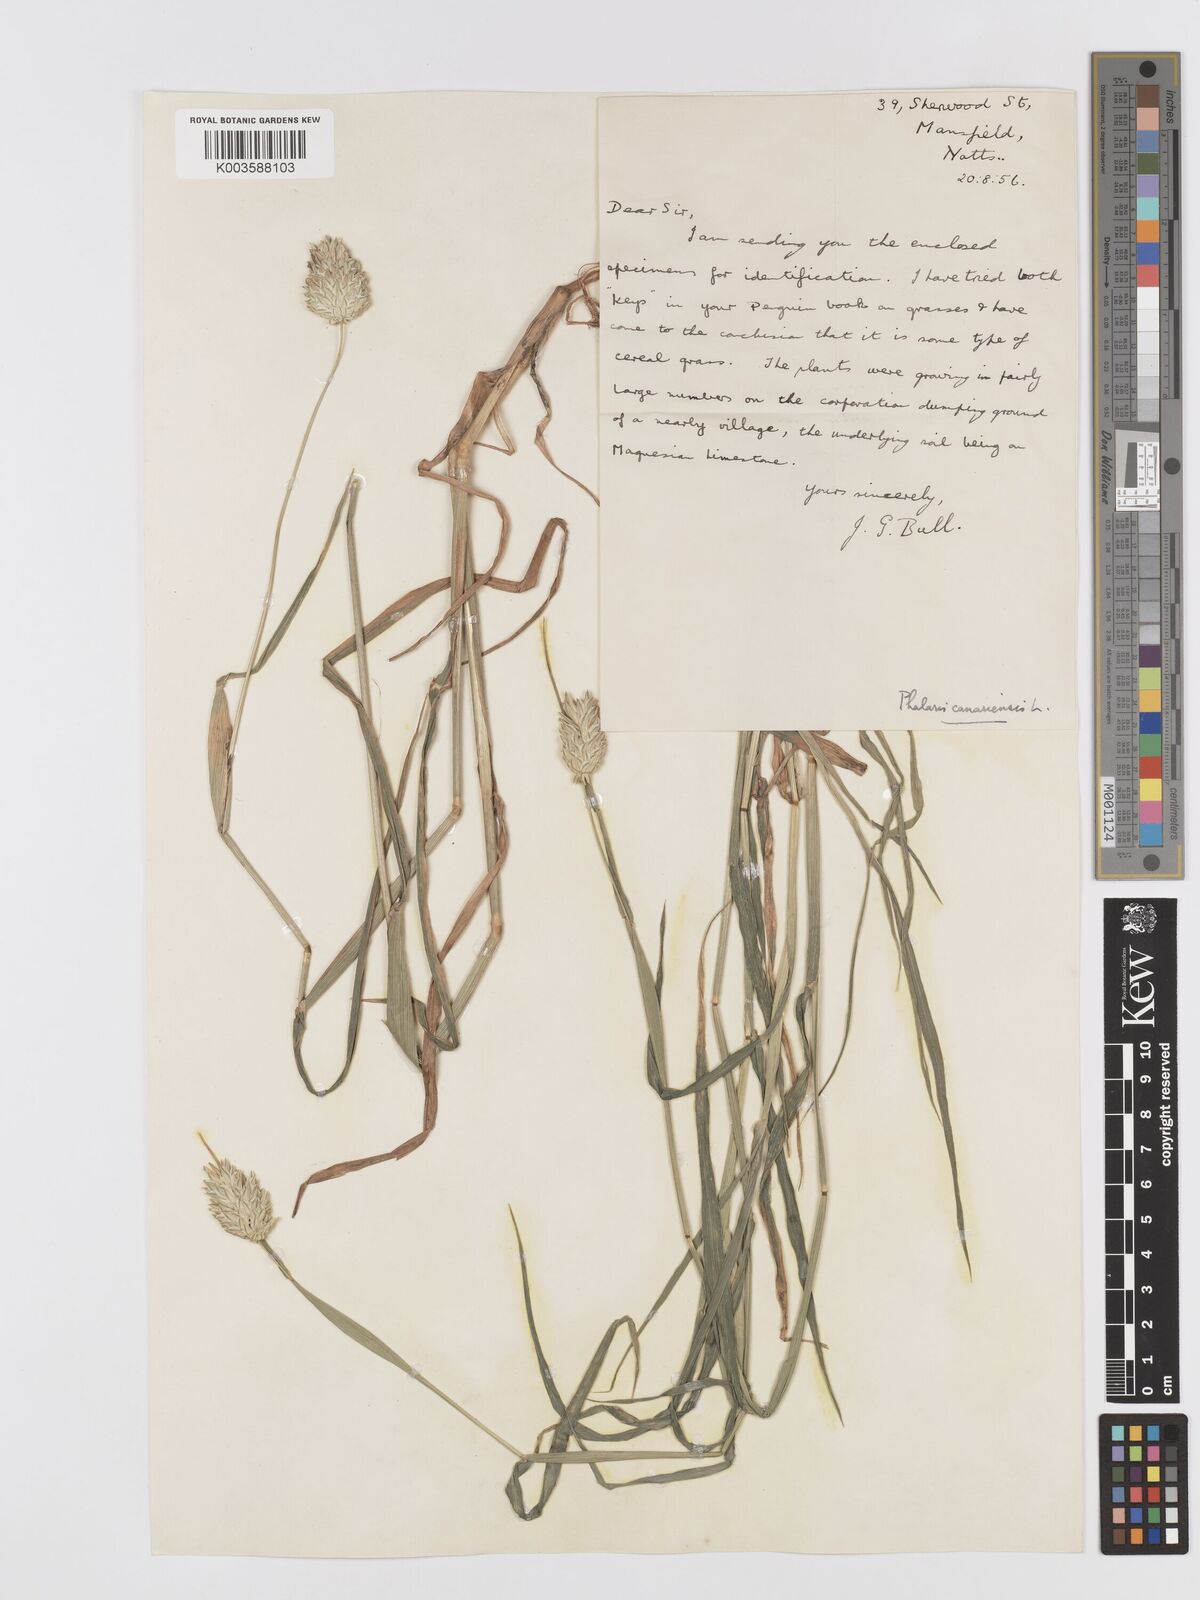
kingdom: Plantae
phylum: Tracheophyta
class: Liliopsida
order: Poales
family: Poaceae
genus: Phalaris
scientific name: Phalaris canariensis
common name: Annual canarygrass
